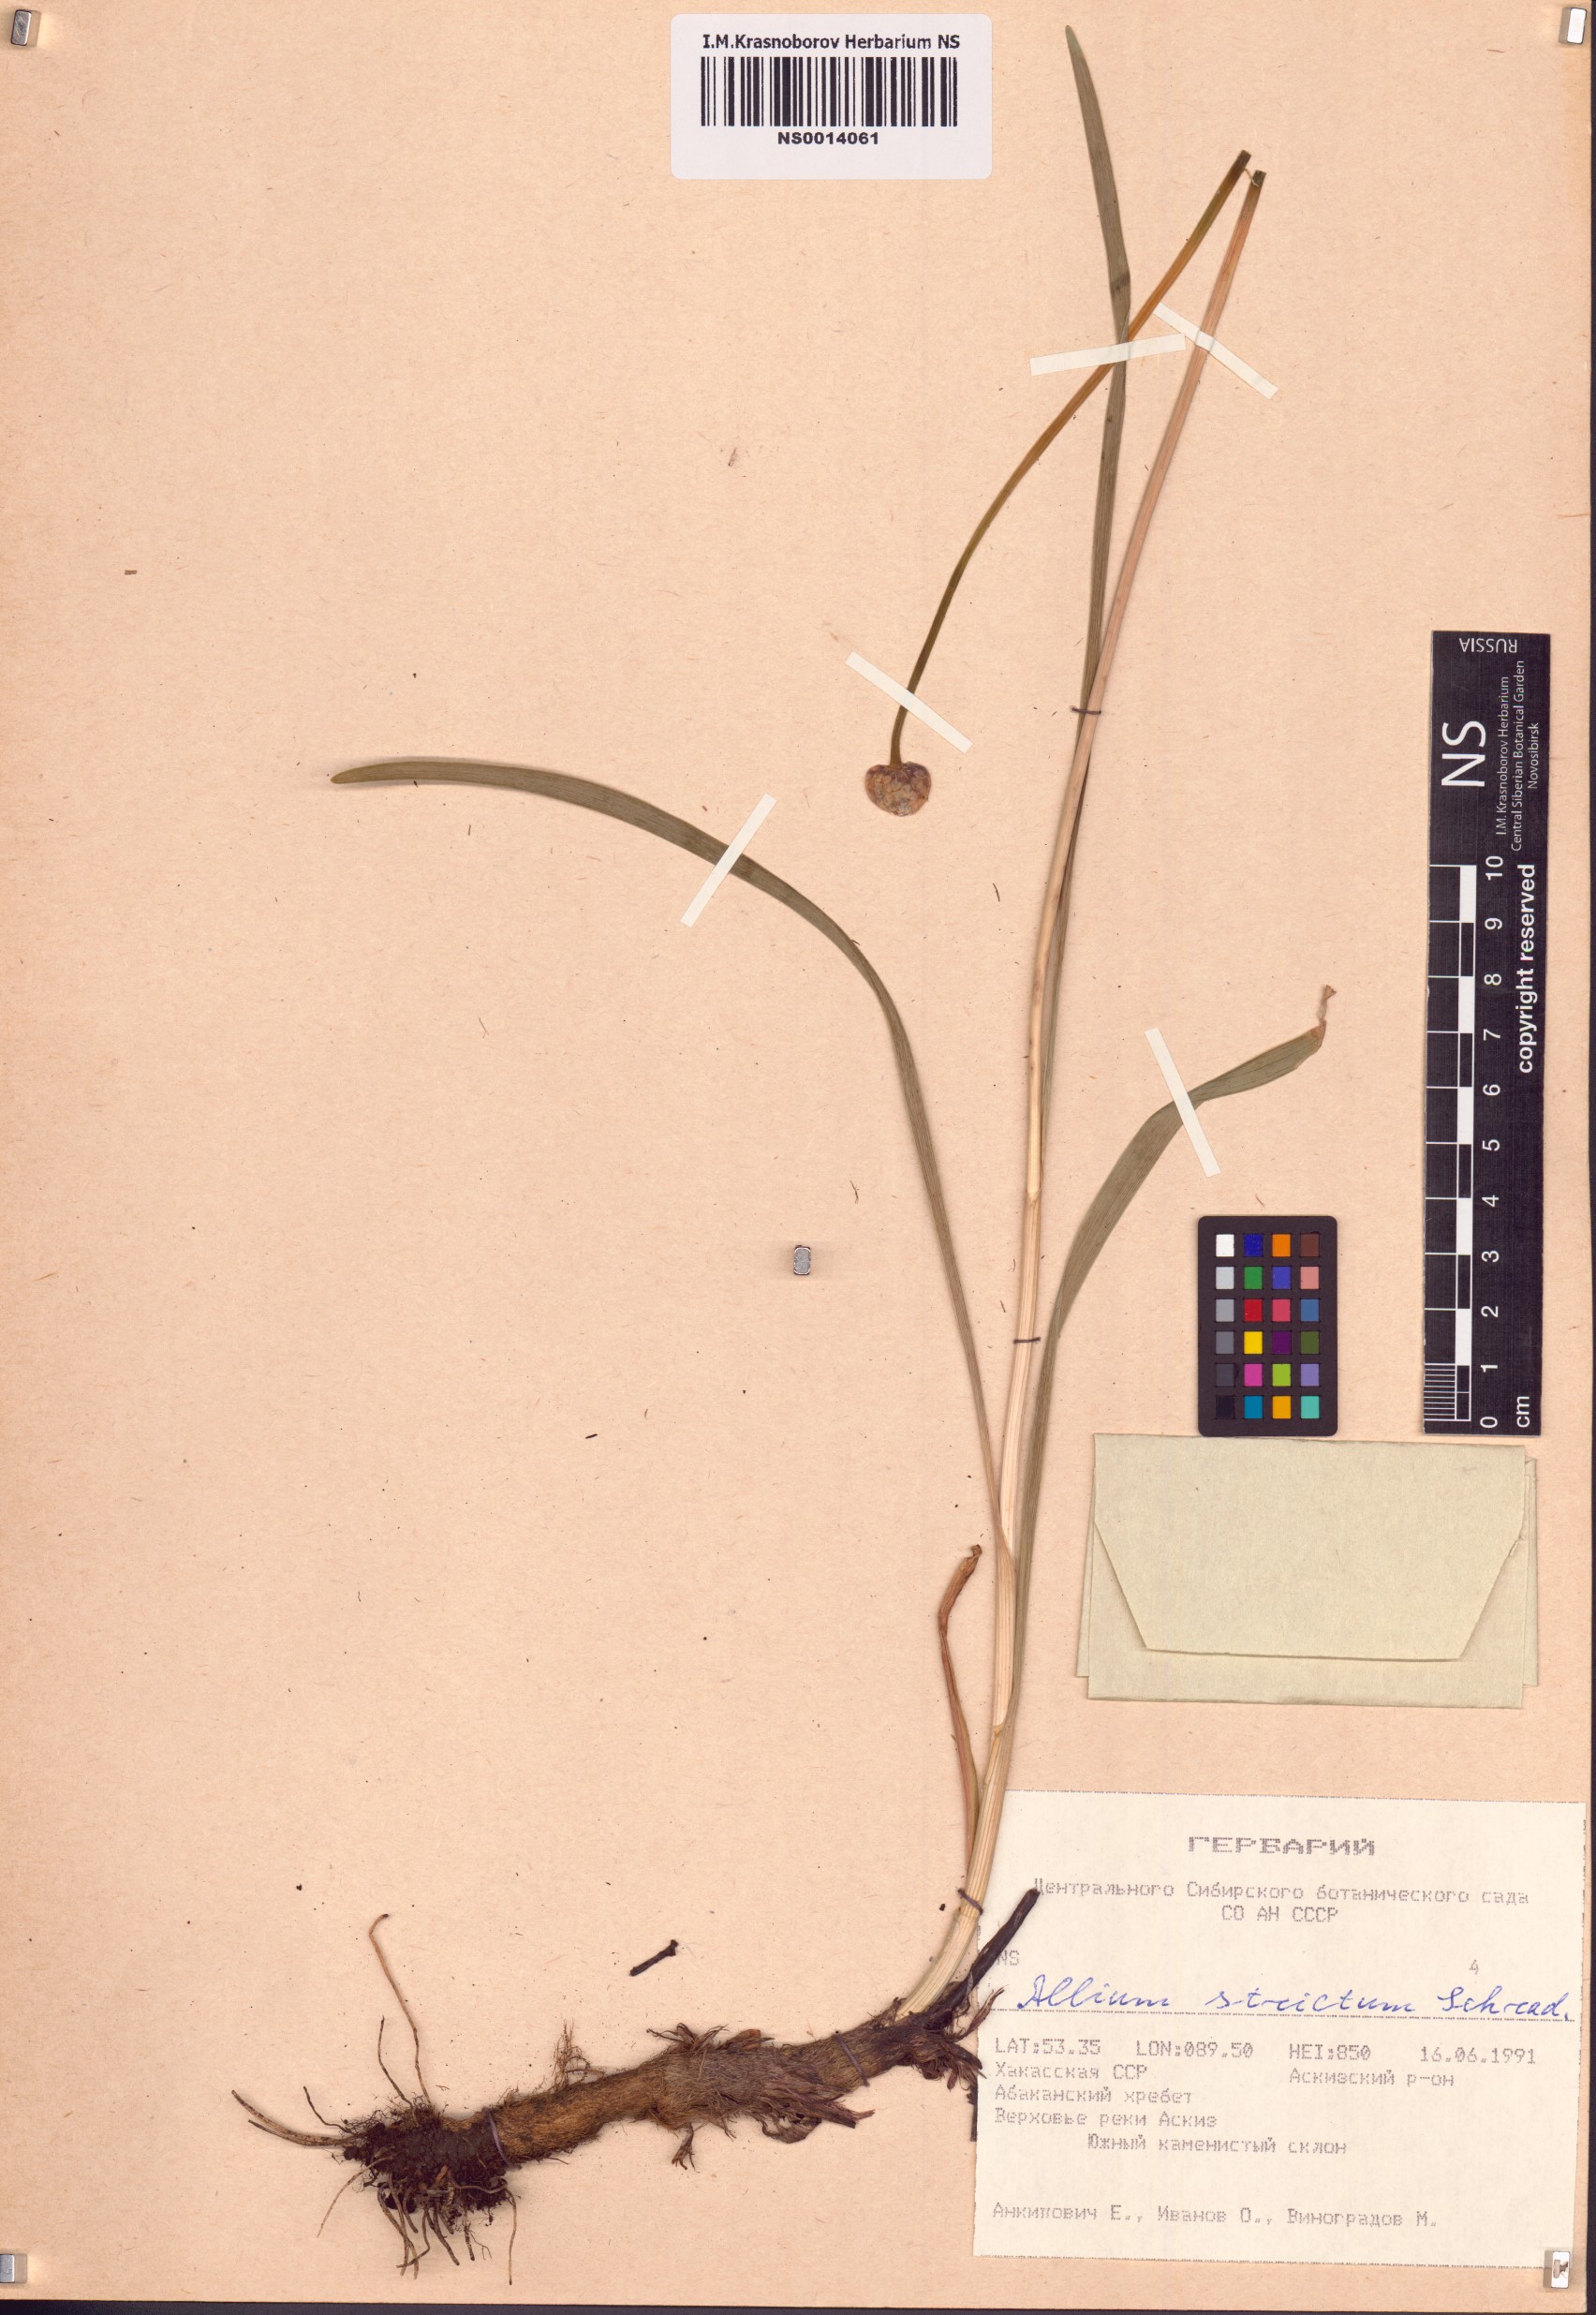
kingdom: Plantae
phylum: Tracheophyta
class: Liliopsida
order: Asparagales
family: Amaryllidaceae
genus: Allium
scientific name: Allium strictum
